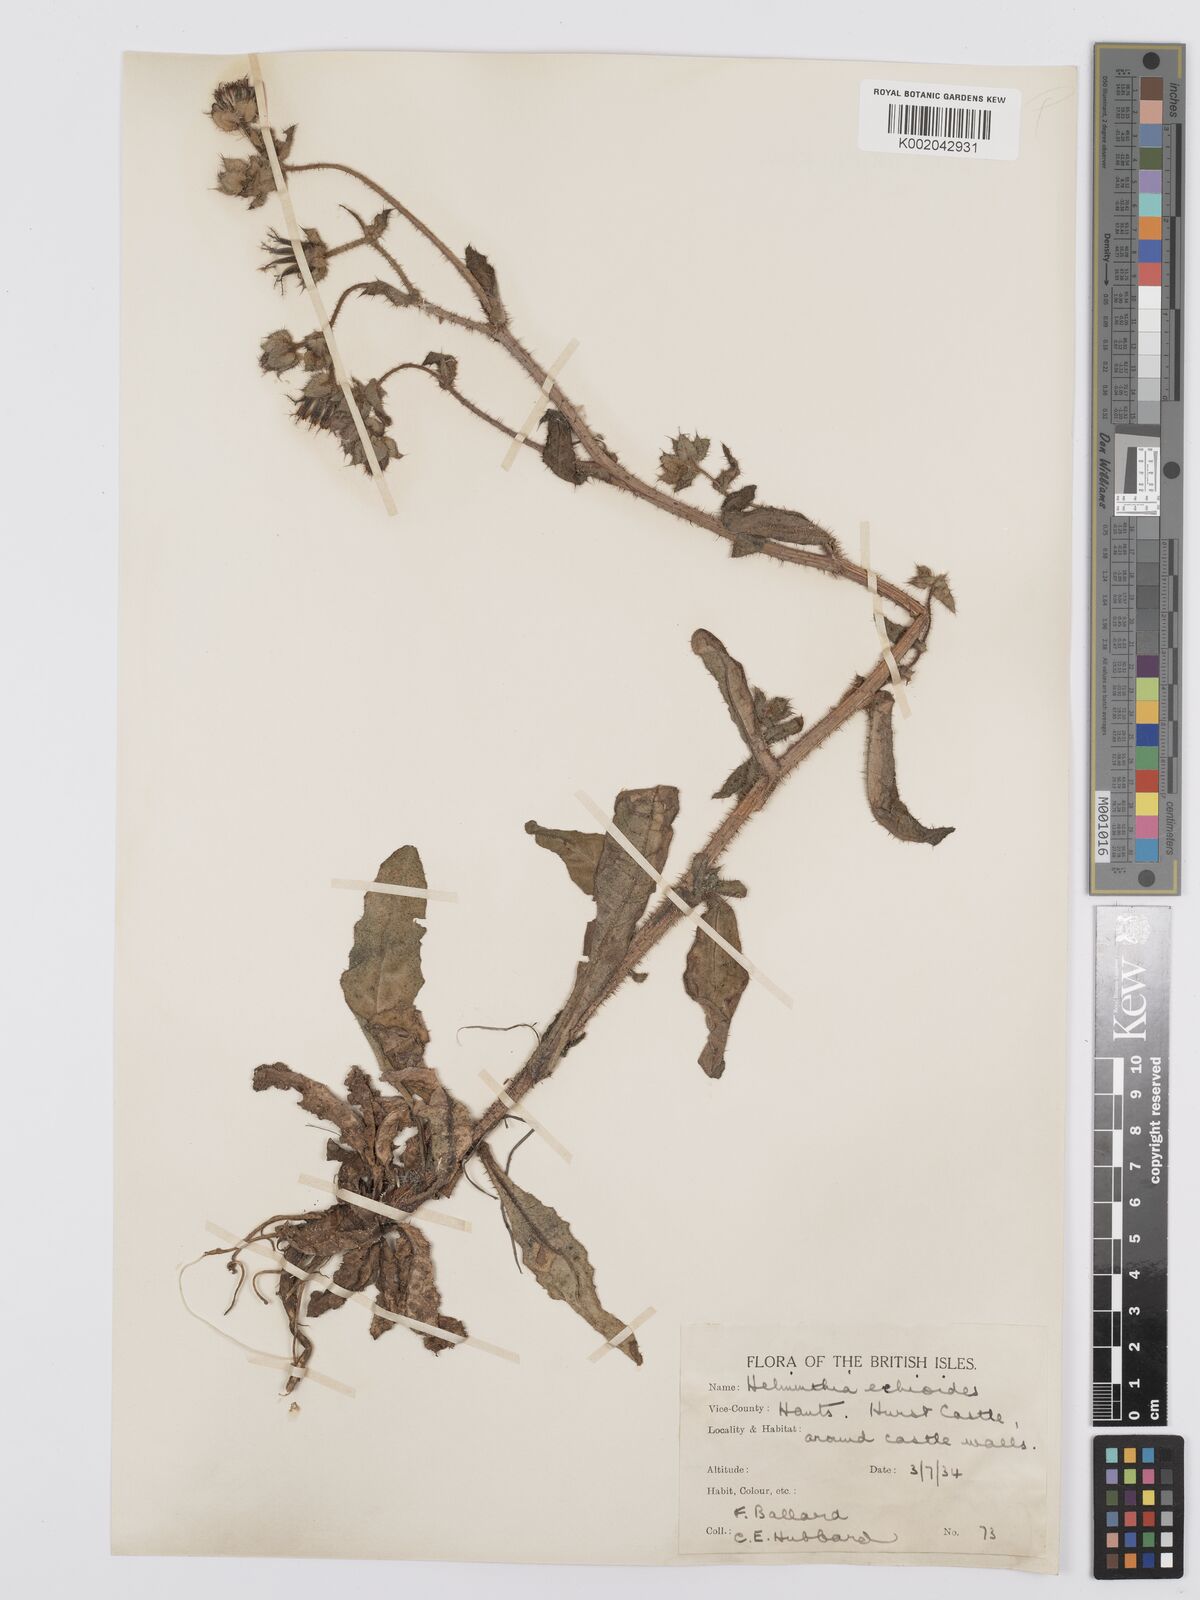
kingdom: Plantae
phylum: Tracheophyta
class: Magnoliopsida
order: Asterales
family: Asteraceae
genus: Helminthotheca
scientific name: Helminthotheca echioides
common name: Ox-tongue
